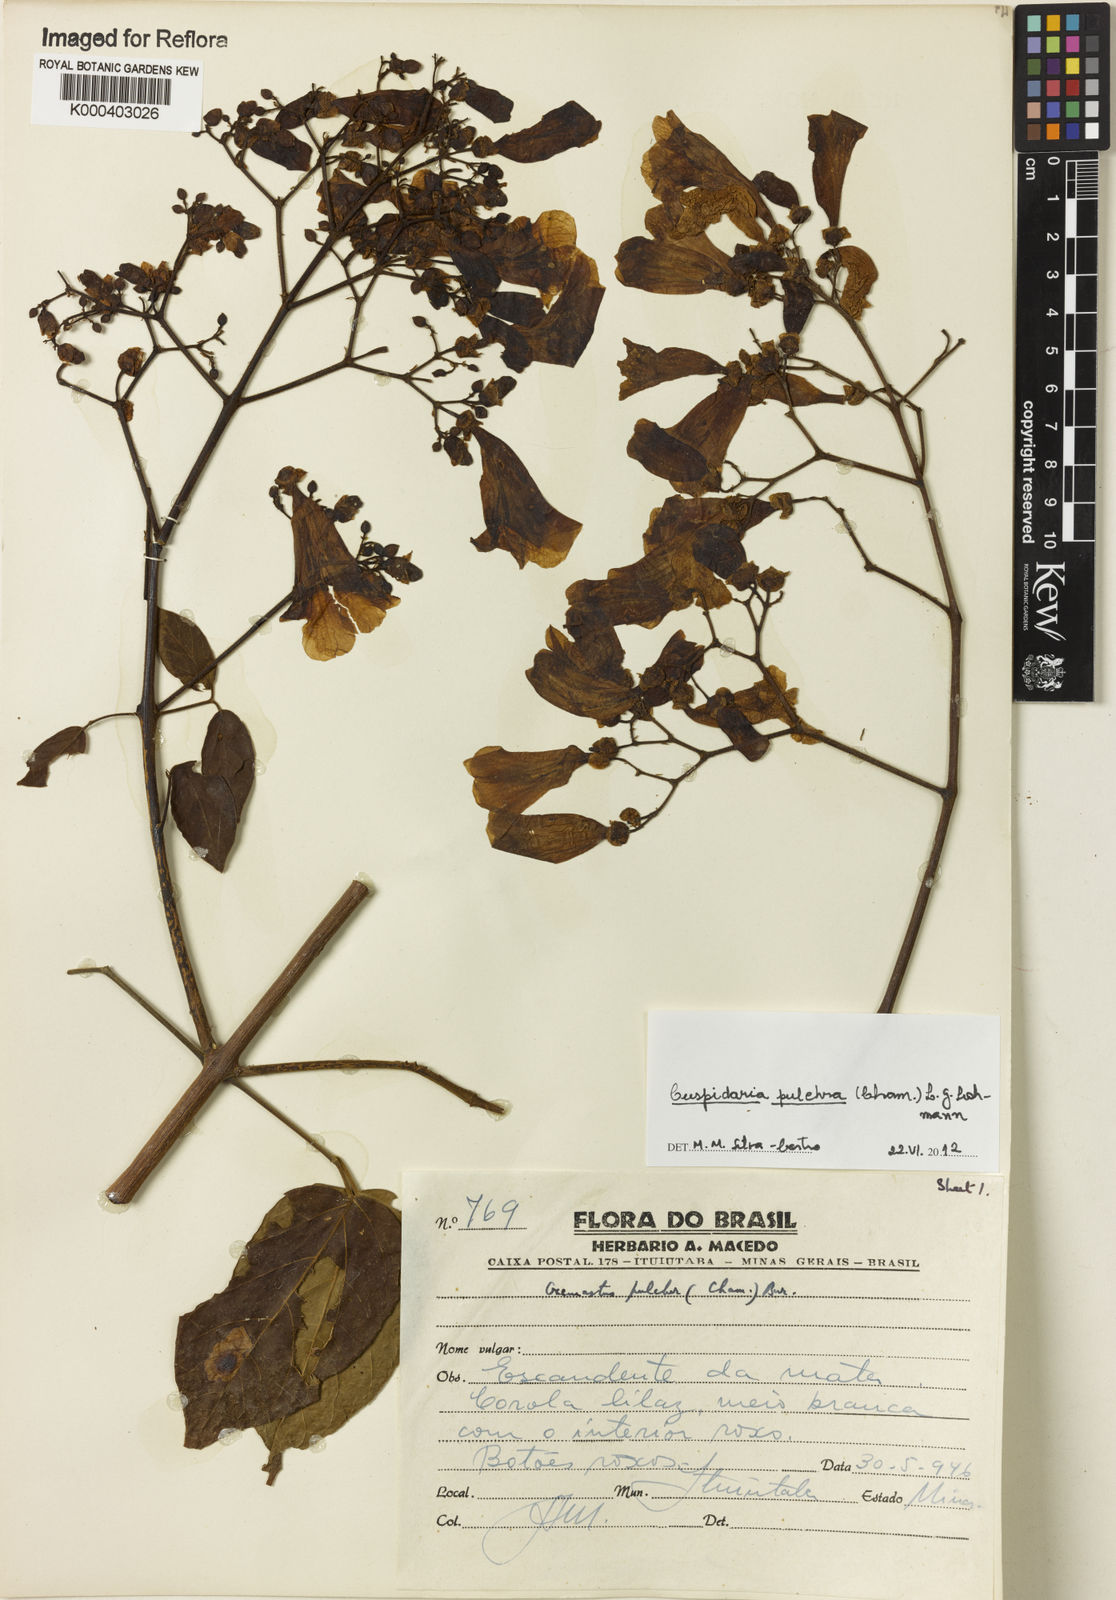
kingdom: Plantae
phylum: Tracheophyta
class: Magnoliopsida
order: Lamiales
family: Bignoniaceae
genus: Cuspidaria
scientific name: Cuspidaria pulchra
